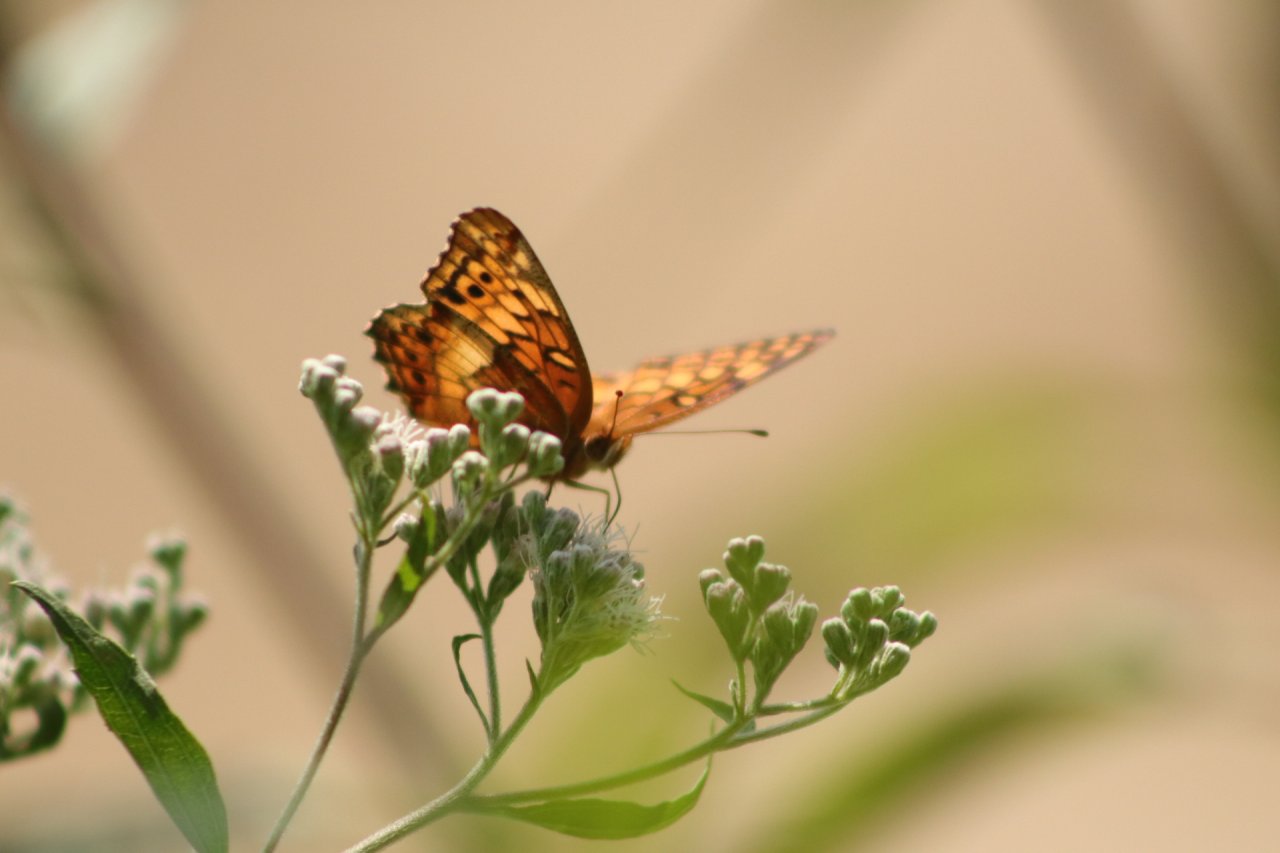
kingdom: Animalia
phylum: Arthropoda
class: Insecta
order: Lepidoptera
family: Nymphalidae
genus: Euptoieta
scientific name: Euptoieta claudia
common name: Variegated Fritillary
